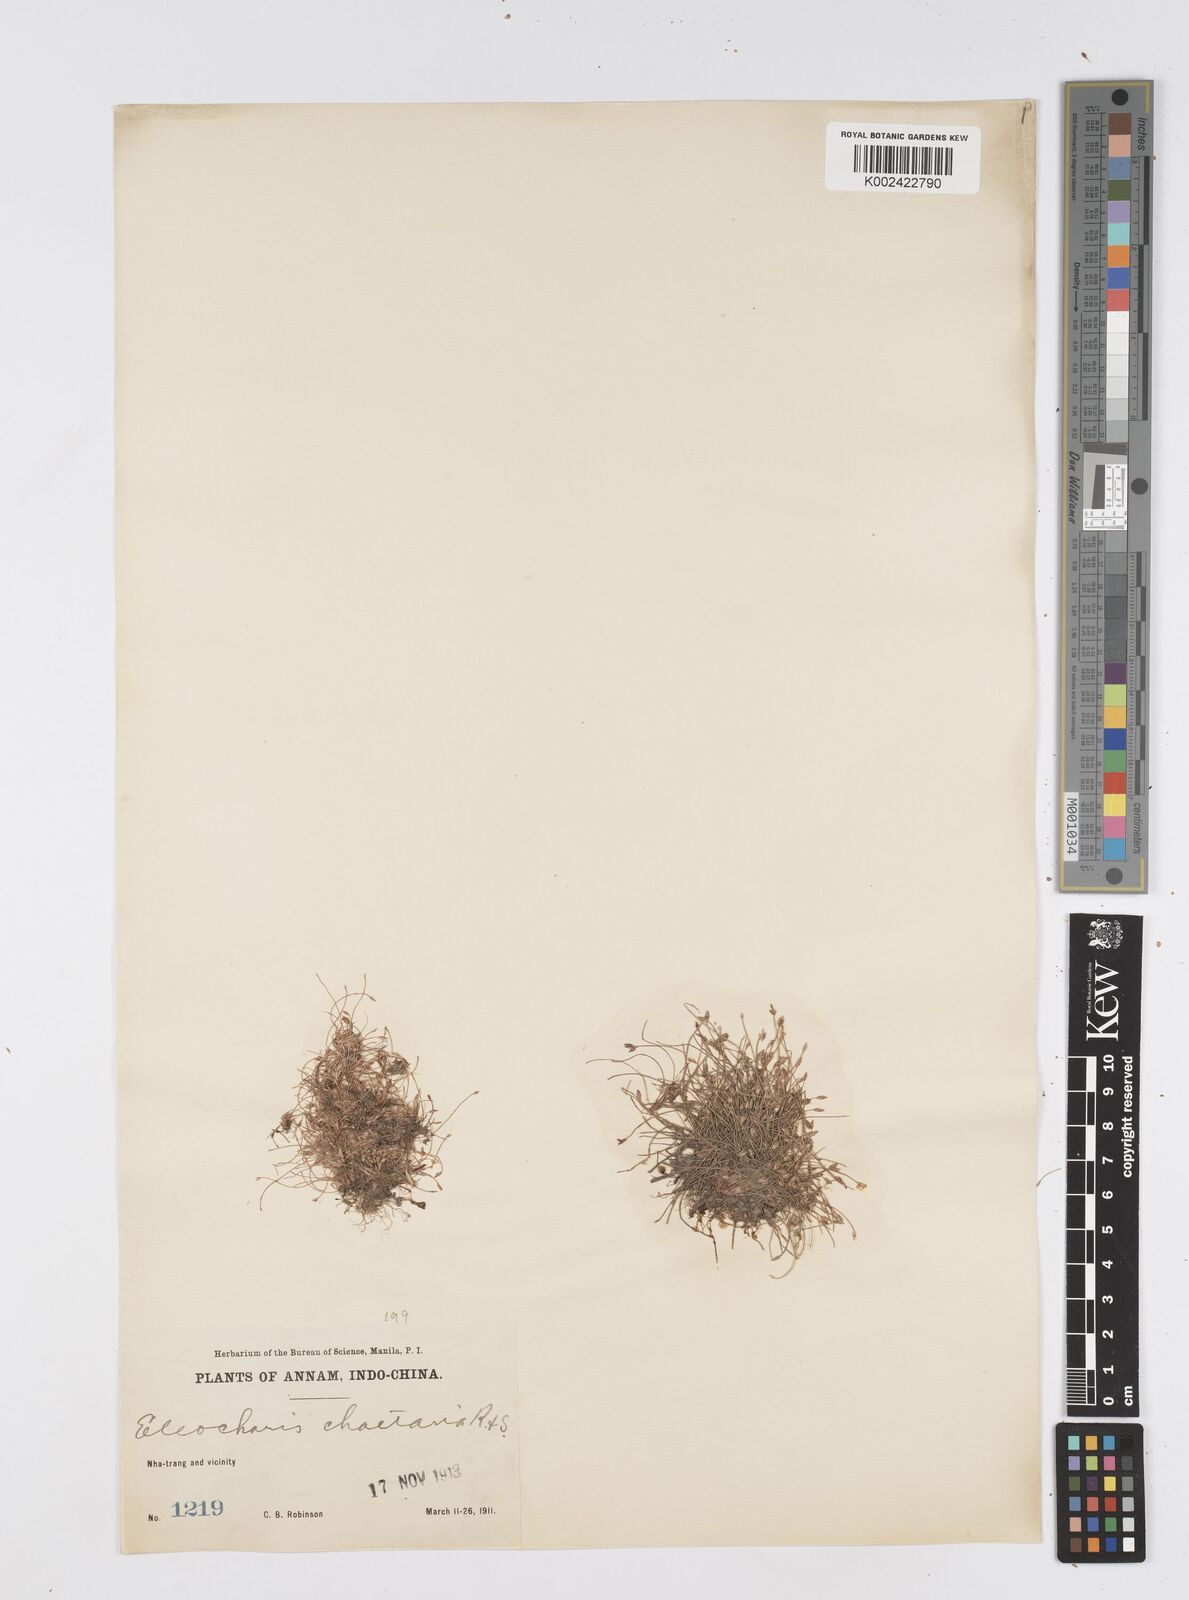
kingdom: Plantae
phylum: Tracheophyta
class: Liliopsida
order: Poales
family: Cyperaceae
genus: Eleocharis
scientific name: Eleocharis retroflexa
